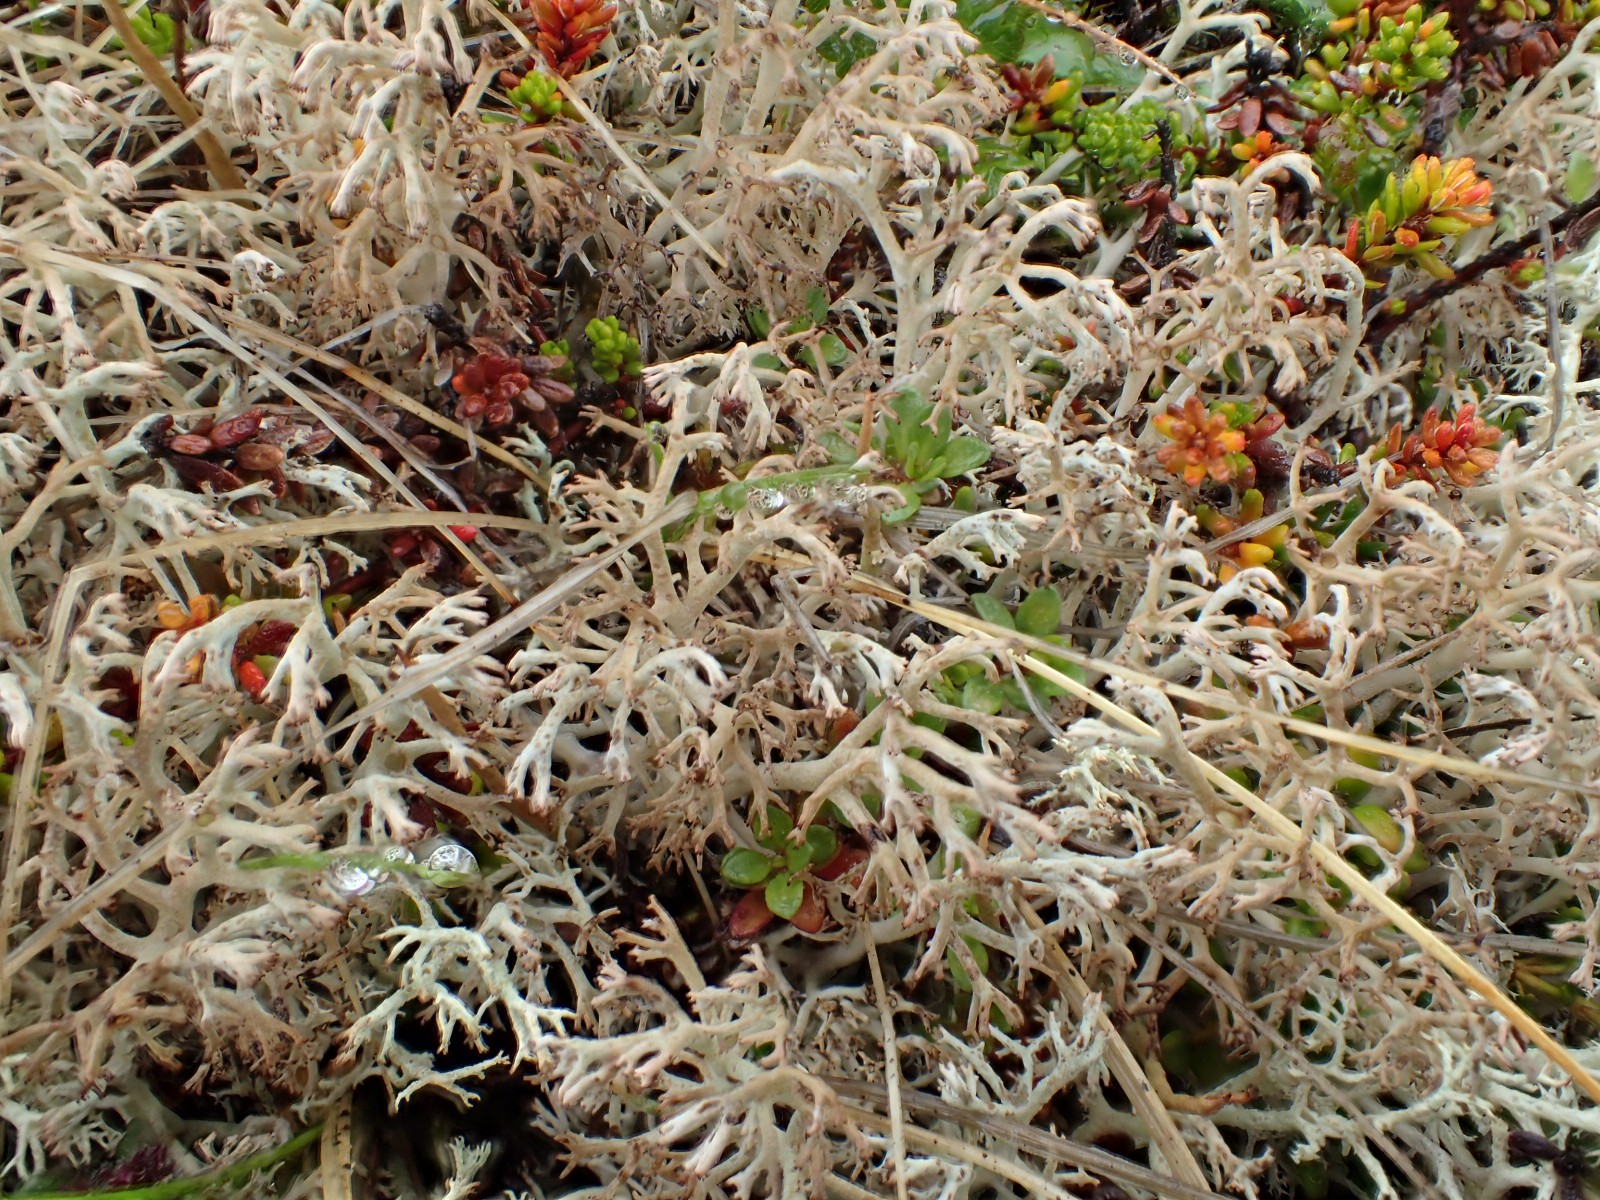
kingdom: Fungi
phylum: Ascomycota
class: Lecanoromycetes
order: Lecanorales
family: Cladoniaceae
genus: Cladonia
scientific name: Cladonia portentosa
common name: hede-rensdyrlav
